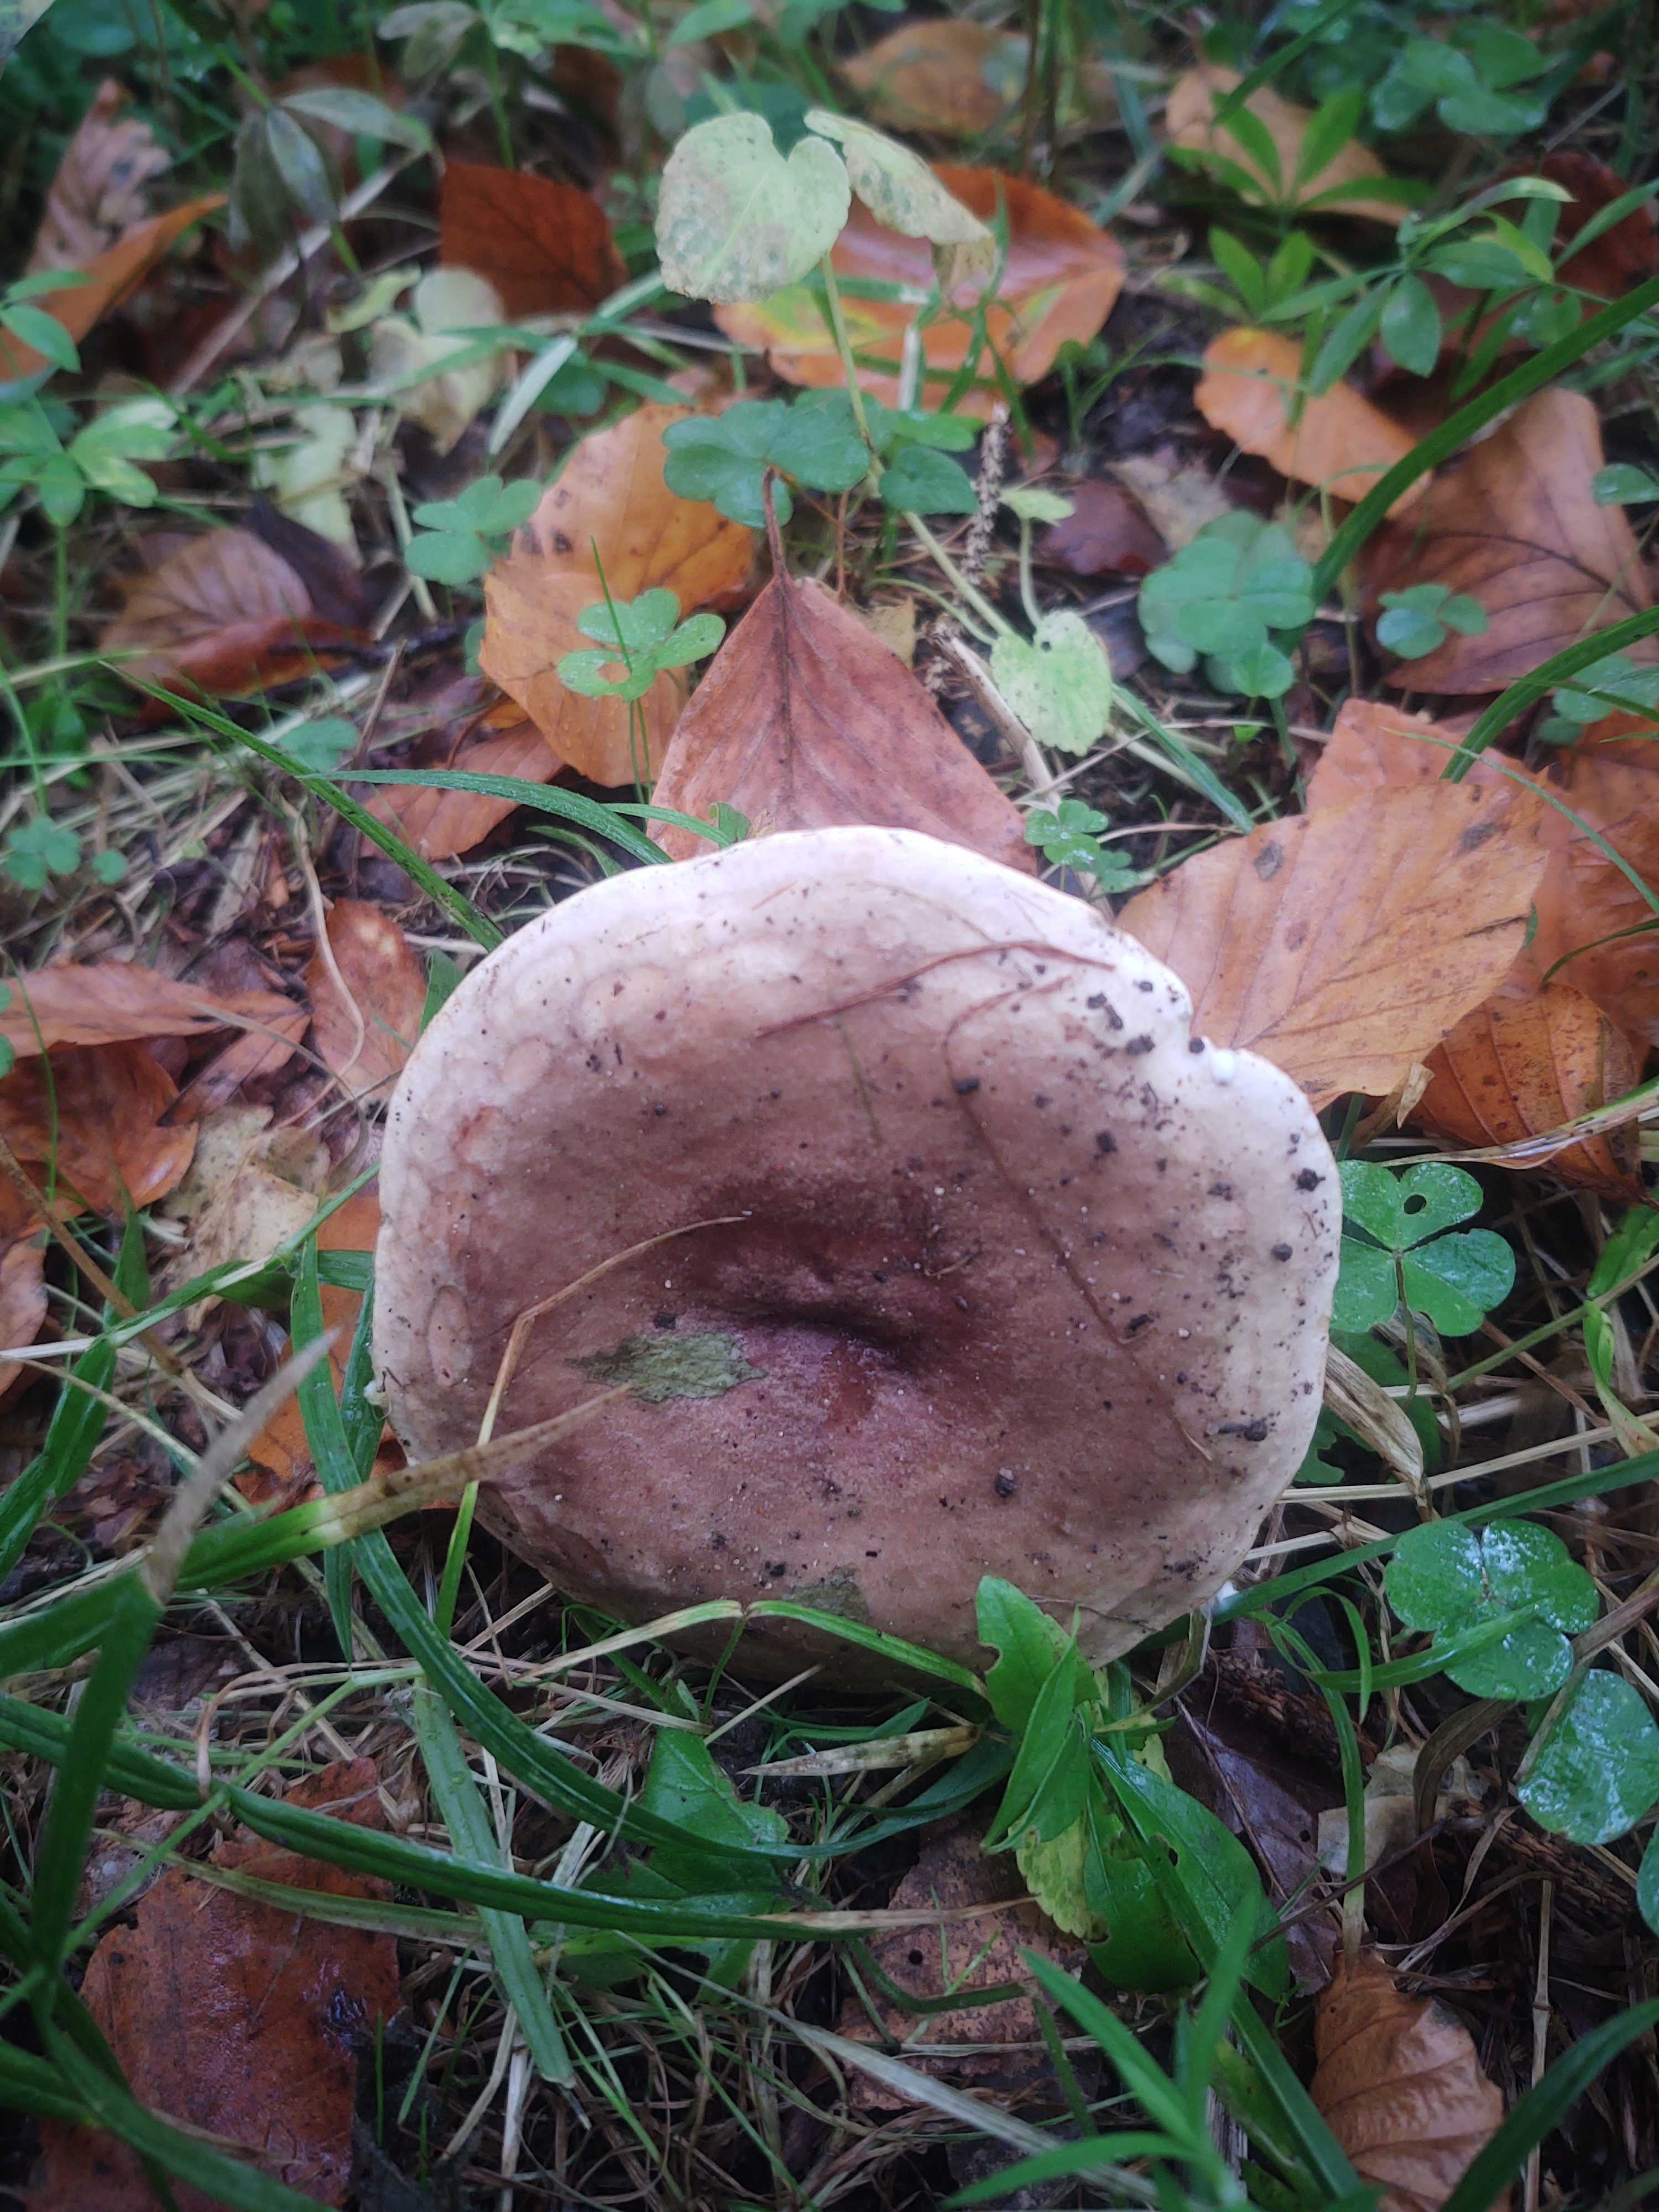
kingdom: Fungi
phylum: Basidiomycota
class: Agaricomycetes
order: Russulales
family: Russulaceae
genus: Lactarius
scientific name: Lactarius fluens
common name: lysrandet mælkehat
